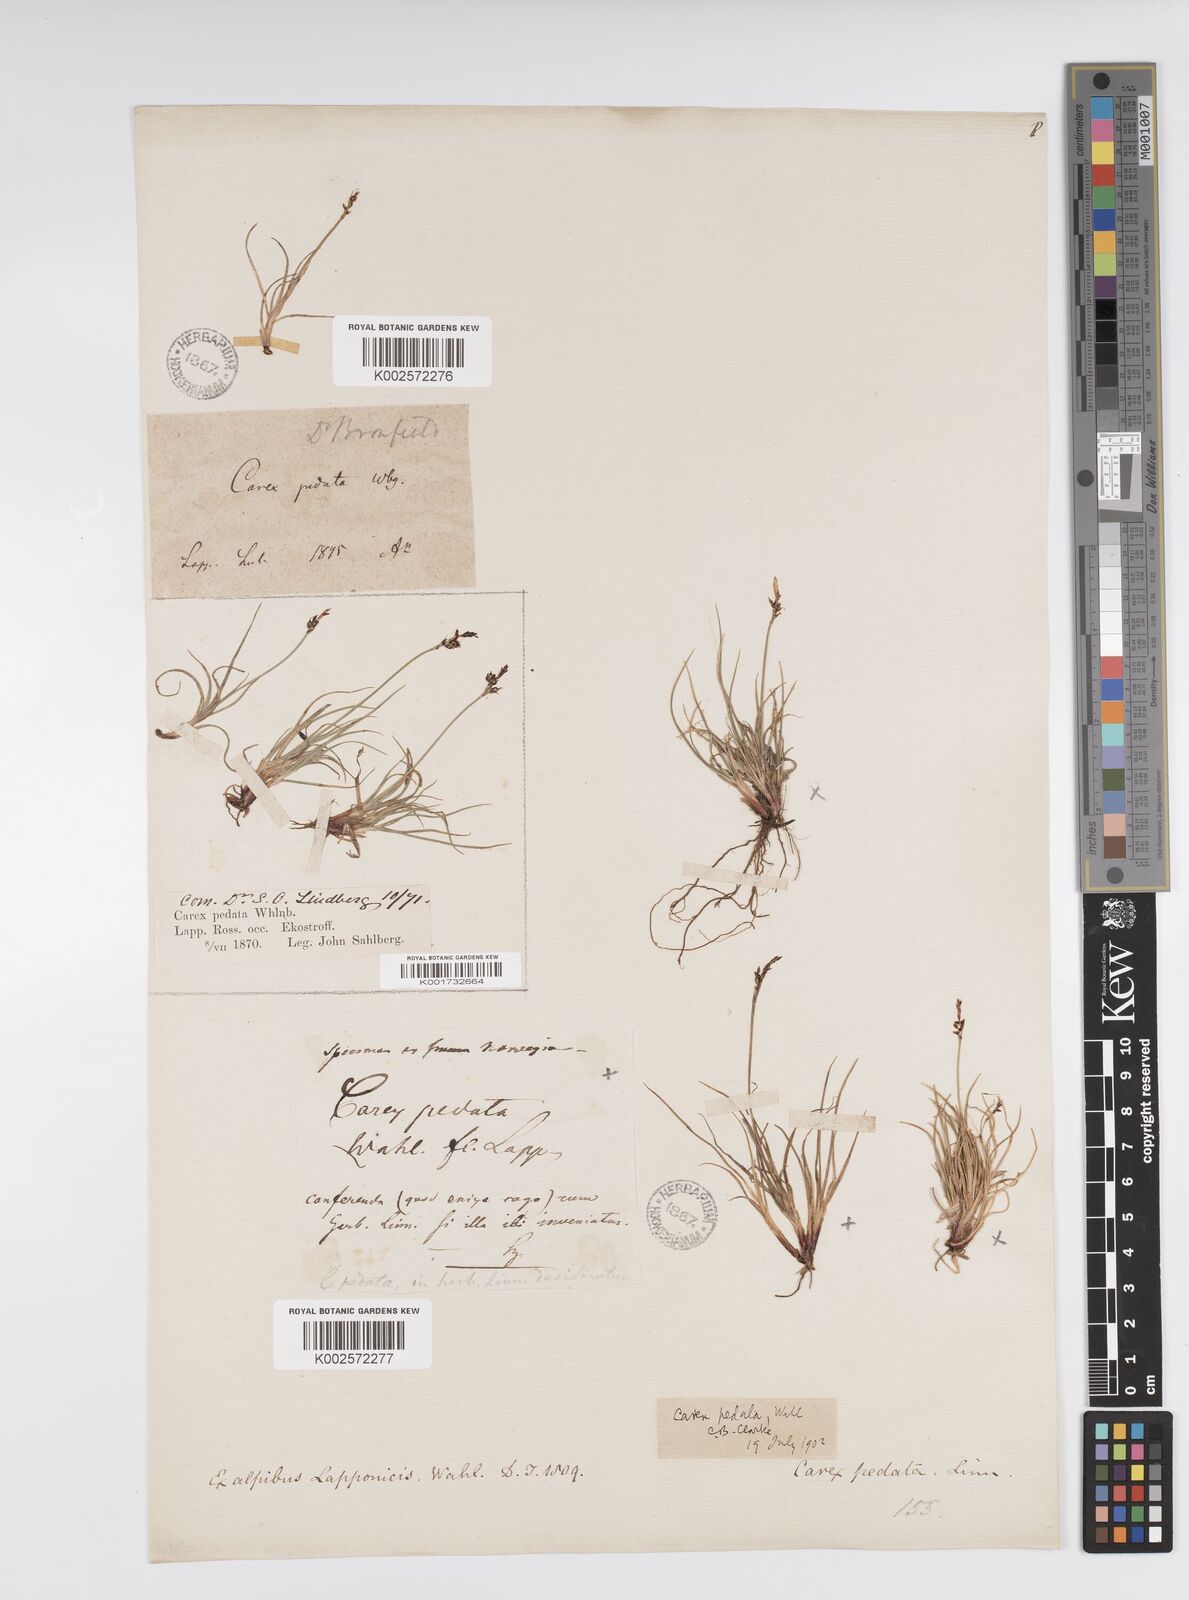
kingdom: Plantae
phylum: Tracheophyta
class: Liliopsida
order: Poales
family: Cyperaceae
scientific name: Cyperaceae
